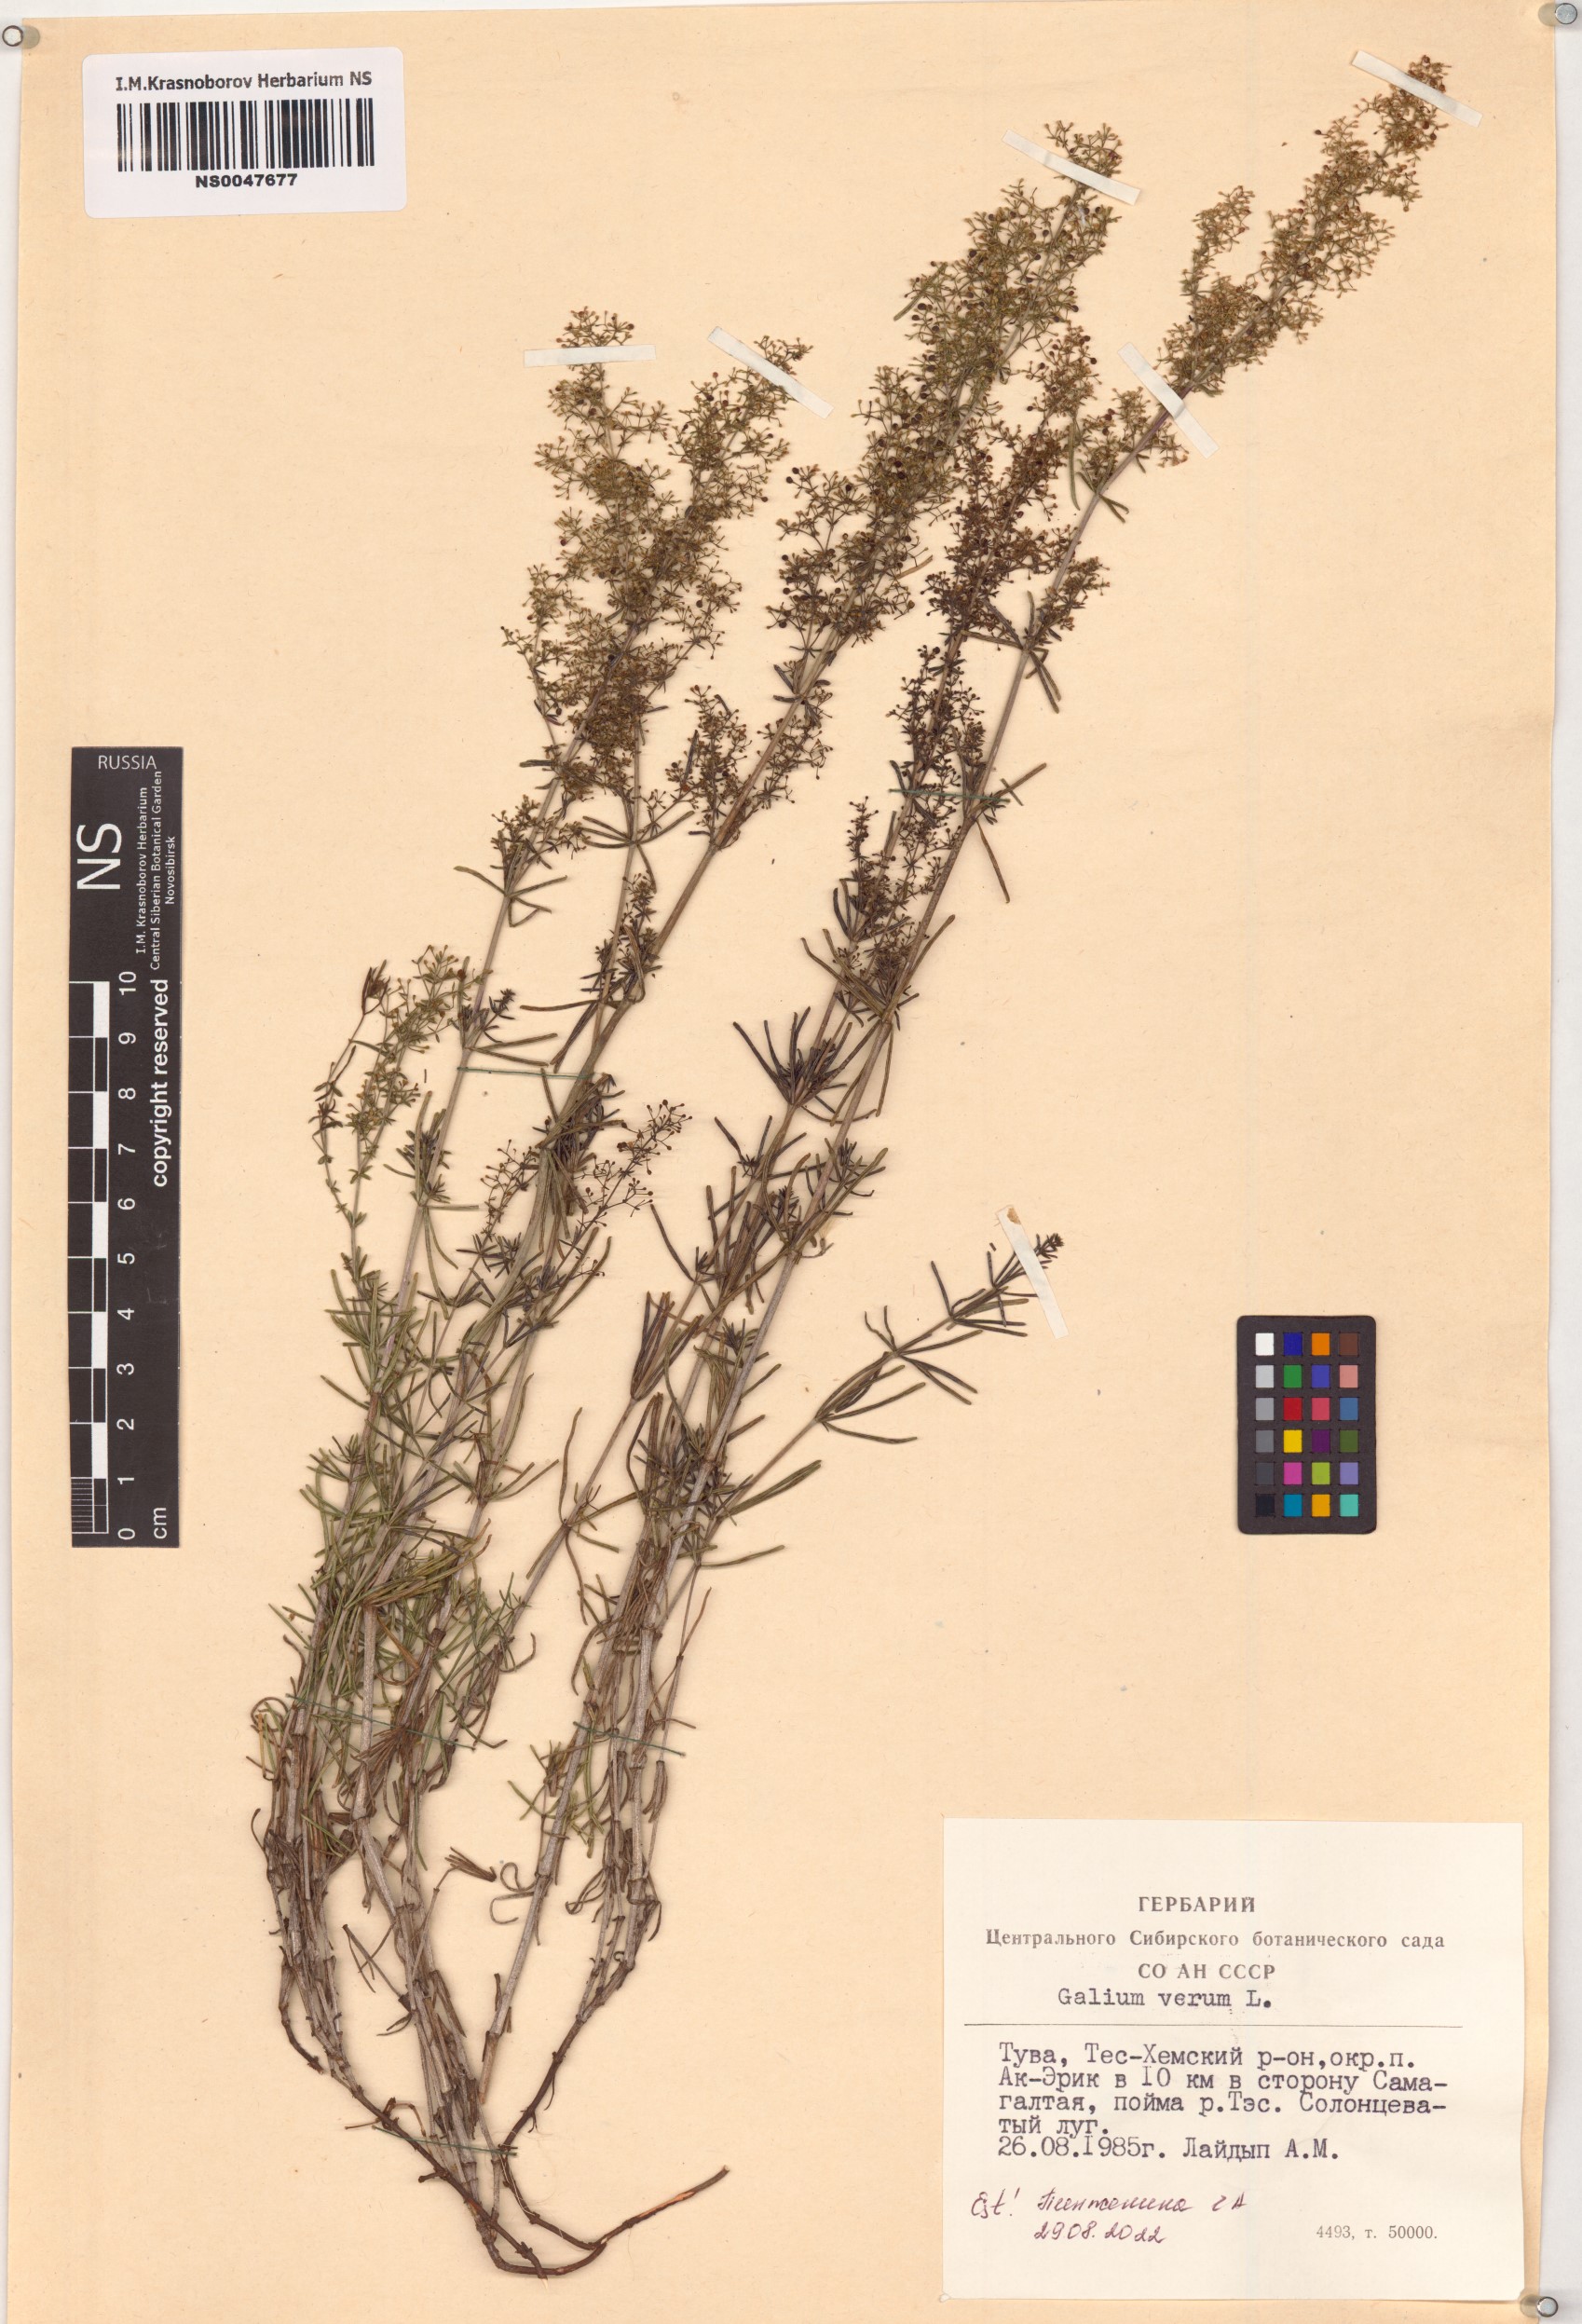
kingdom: Plantae
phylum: Tracheophyta
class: Magnoliopsida
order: Gentianales
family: Rubiaceae
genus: Galium
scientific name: Galium verum
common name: Lady's bedstraw
